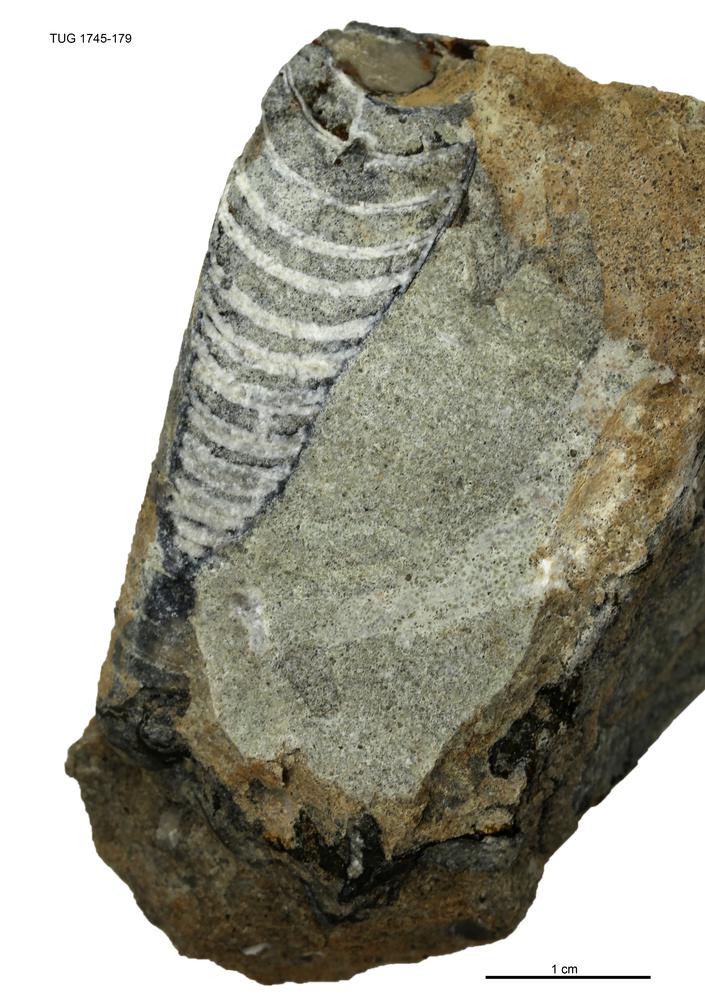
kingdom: Animalia
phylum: Mollusca
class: Cephalopoda
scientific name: Cephalopoda
